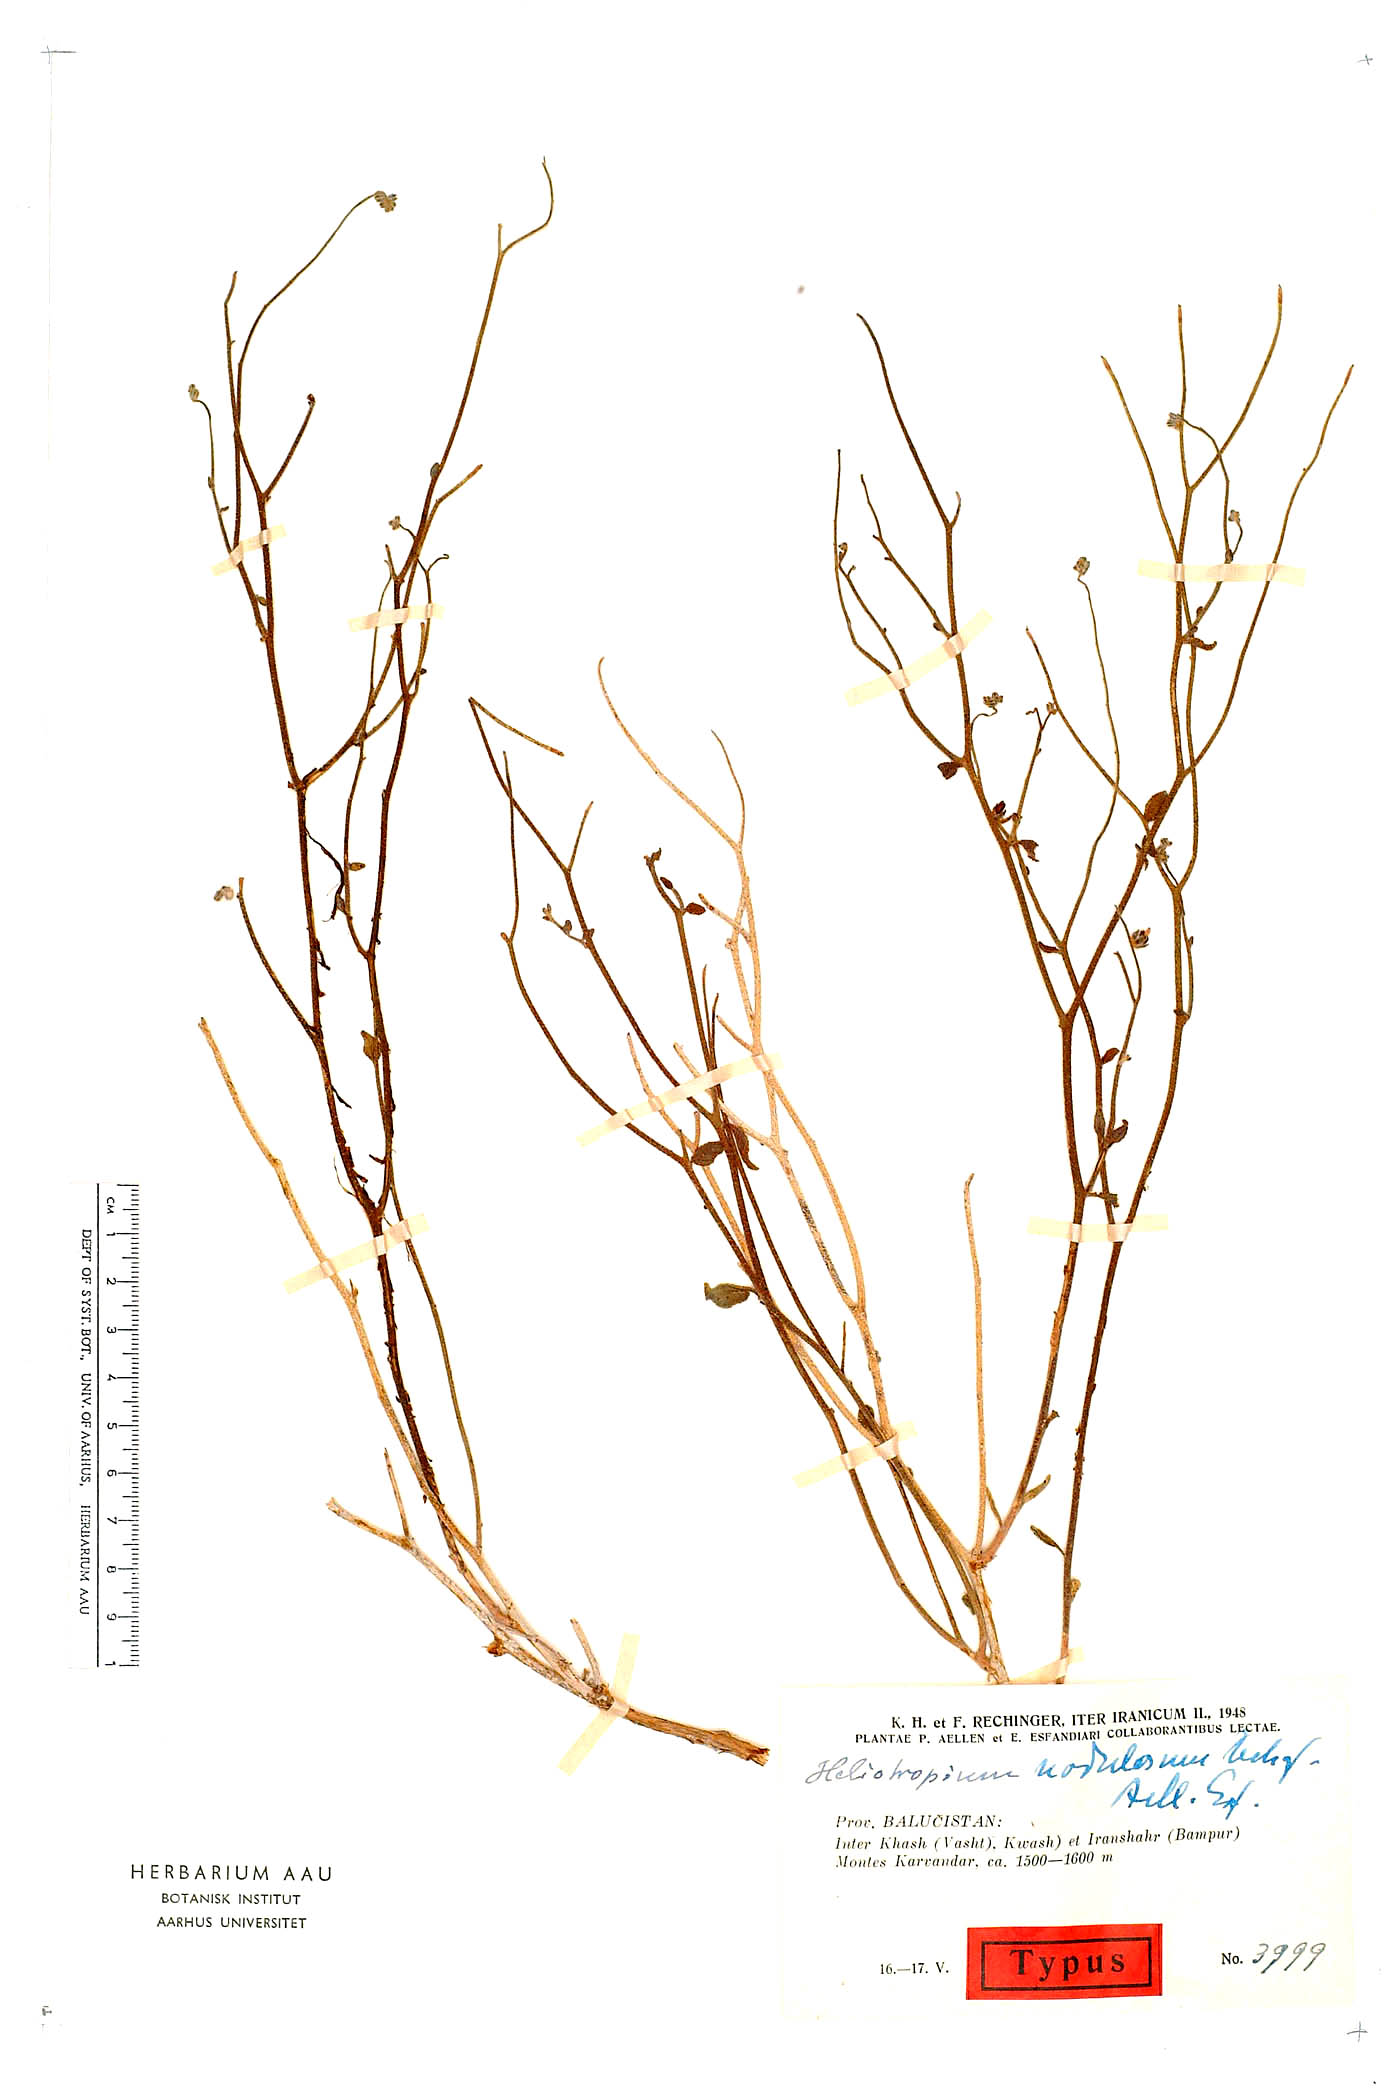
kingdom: Plantae
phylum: Tracheophyta
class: Magnoliopsida
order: Boraginales
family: Heliotropiaceae
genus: Heliotropium
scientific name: Heliotropium nodulosum
